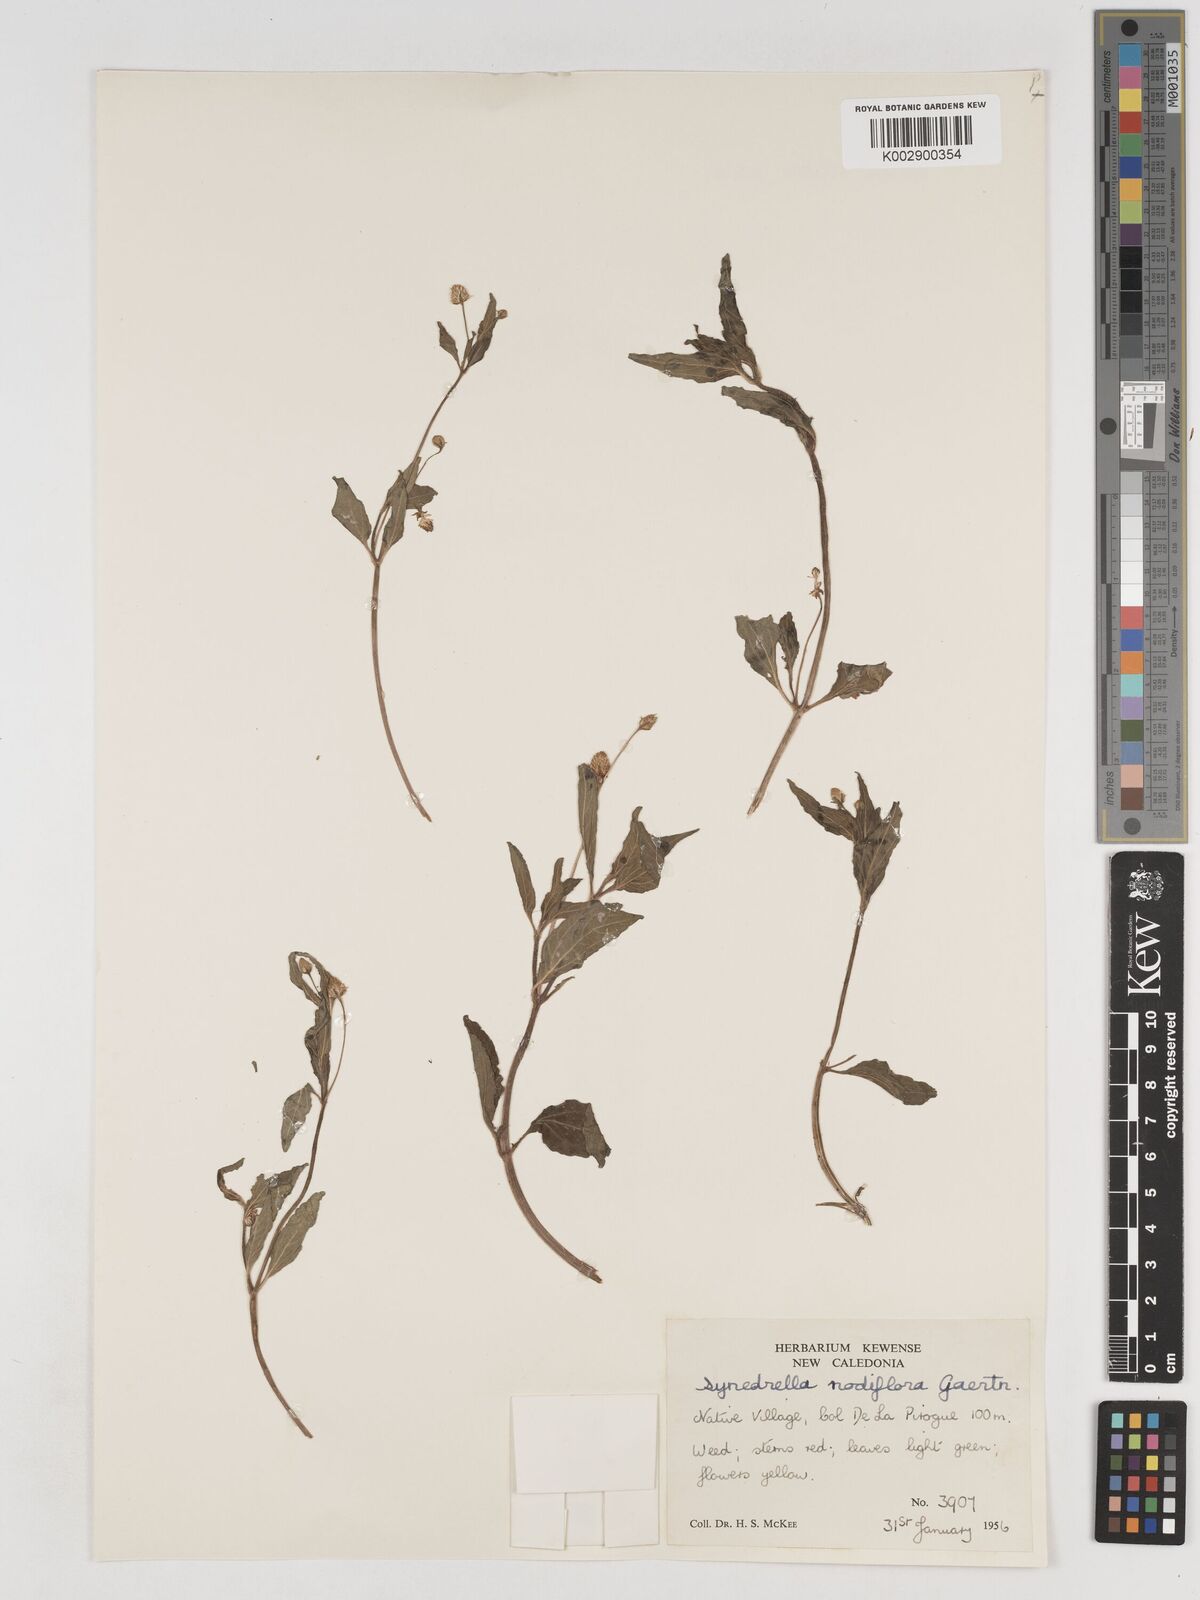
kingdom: Plantae
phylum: Tracheophyta
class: Magnoliopsida
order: Asterales
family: Asteraceae
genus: Synedrella
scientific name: Synedrella nodiflora
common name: Nodeweed
